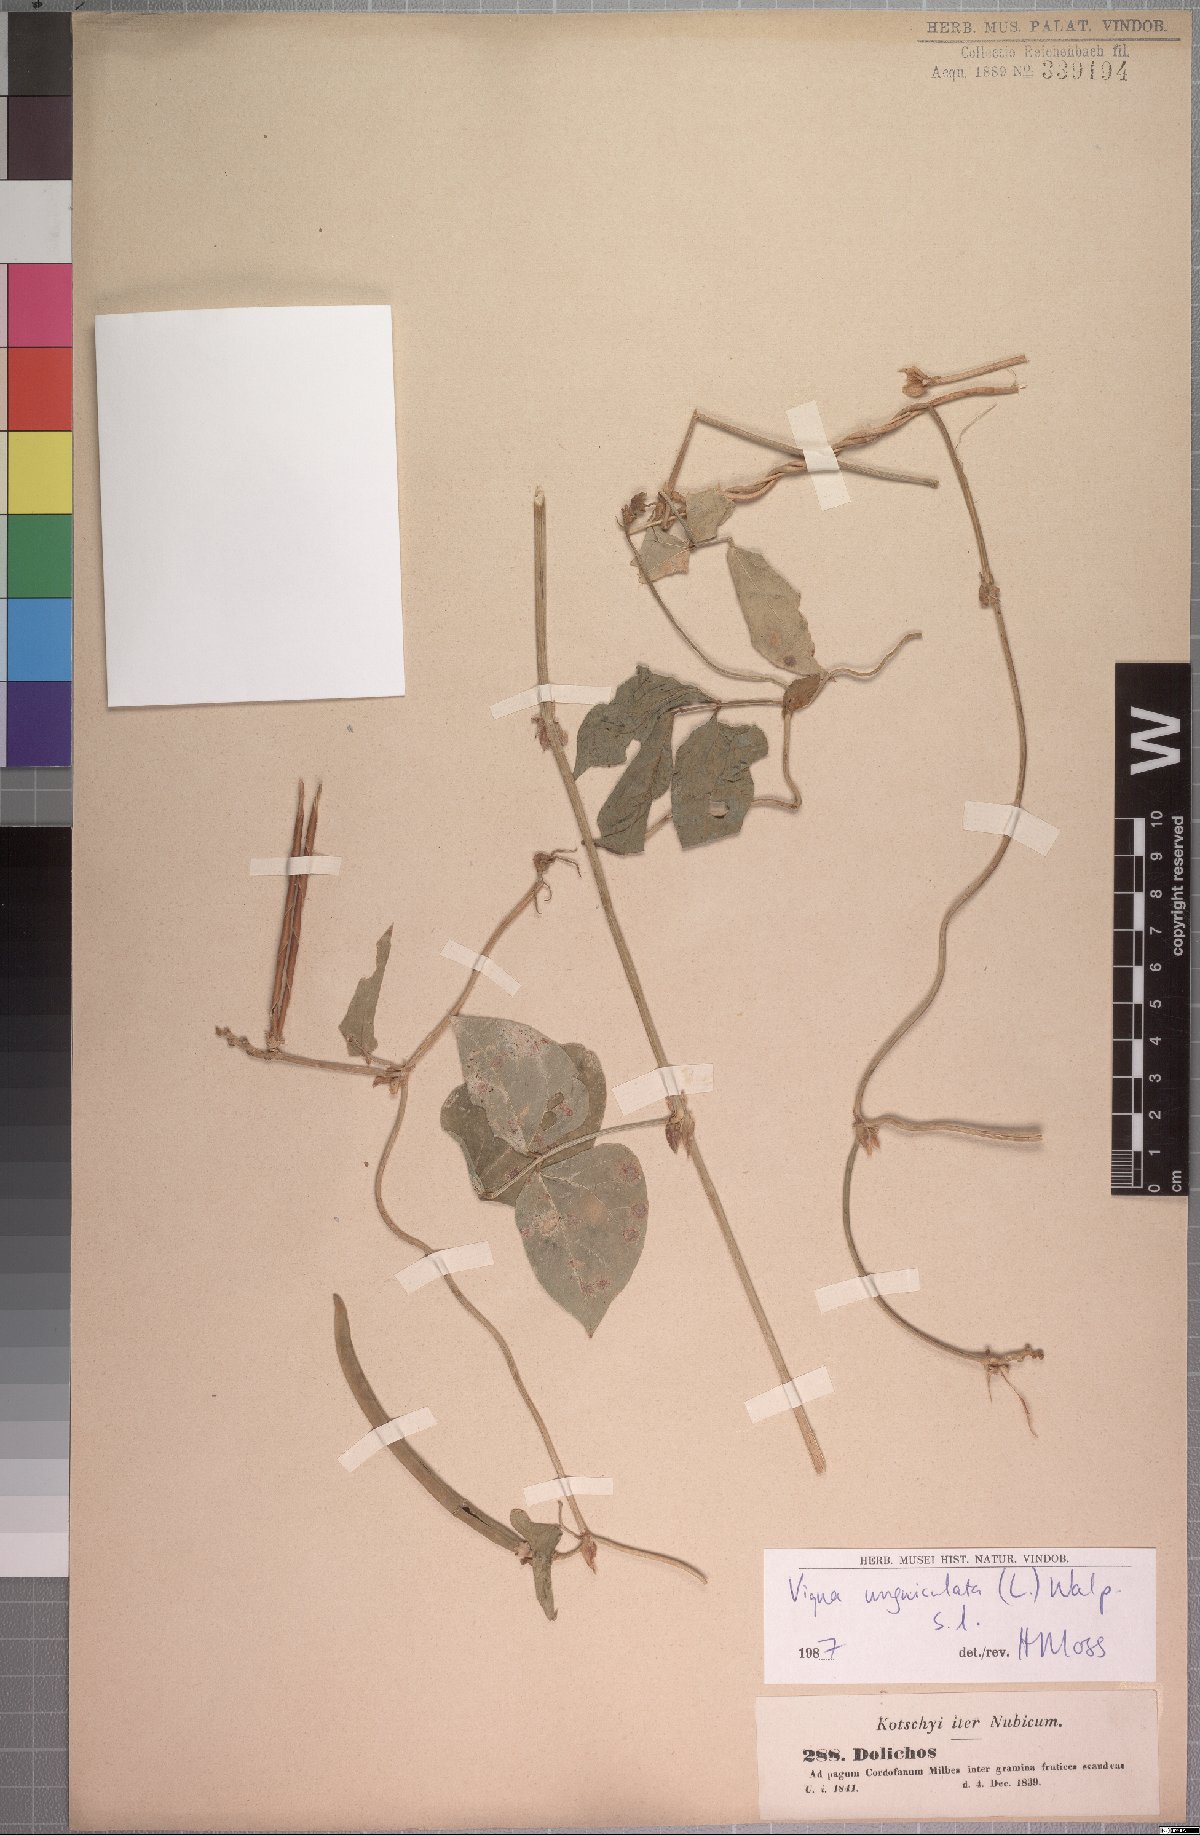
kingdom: Plantae
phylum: Tracheophyta
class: Magnoliopsida
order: Fabales
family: Fabaceae
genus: Vigna
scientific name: Vigna unguiculata
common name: Cowpea
